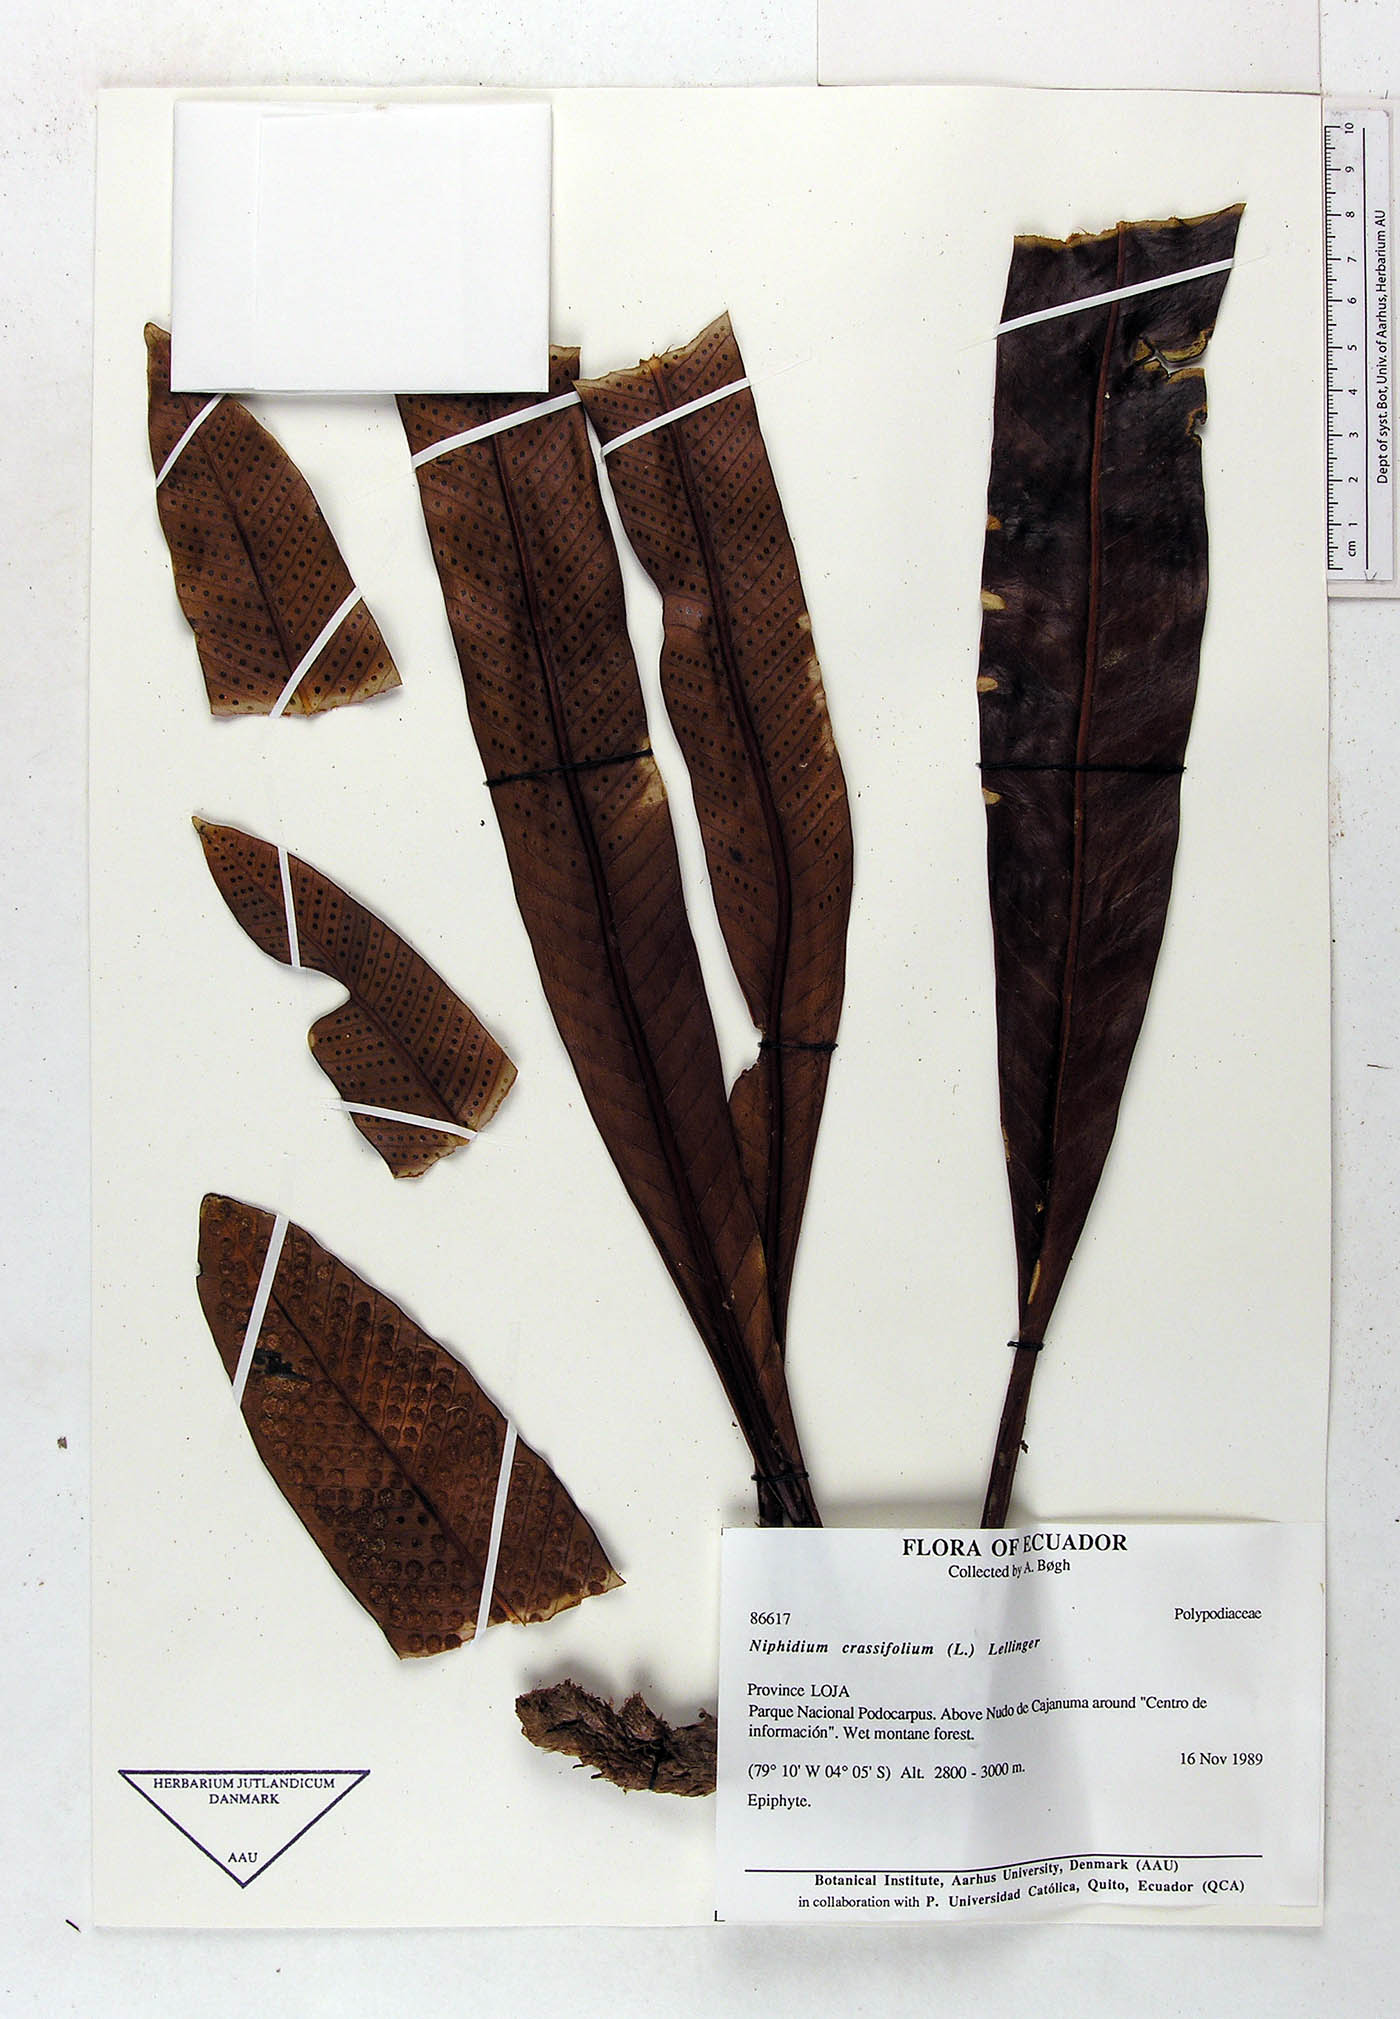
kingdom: Plantae
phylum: Tracheophyta
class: Polypodiopsida
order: Polypodiales
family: Polypodiaceae
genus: Niphidium
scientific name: Niphidium crassifolium
